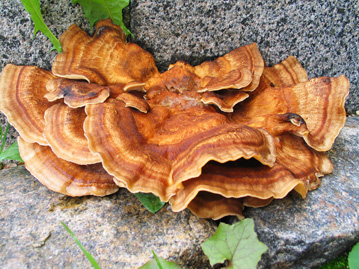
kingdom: Fungi
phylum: Basidiomycota
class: Agaricomycetes
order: Polyporales
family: Meripilaceae
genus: Meripilus
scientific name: Meripilus giganteus
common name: kæmpeporesvamp
